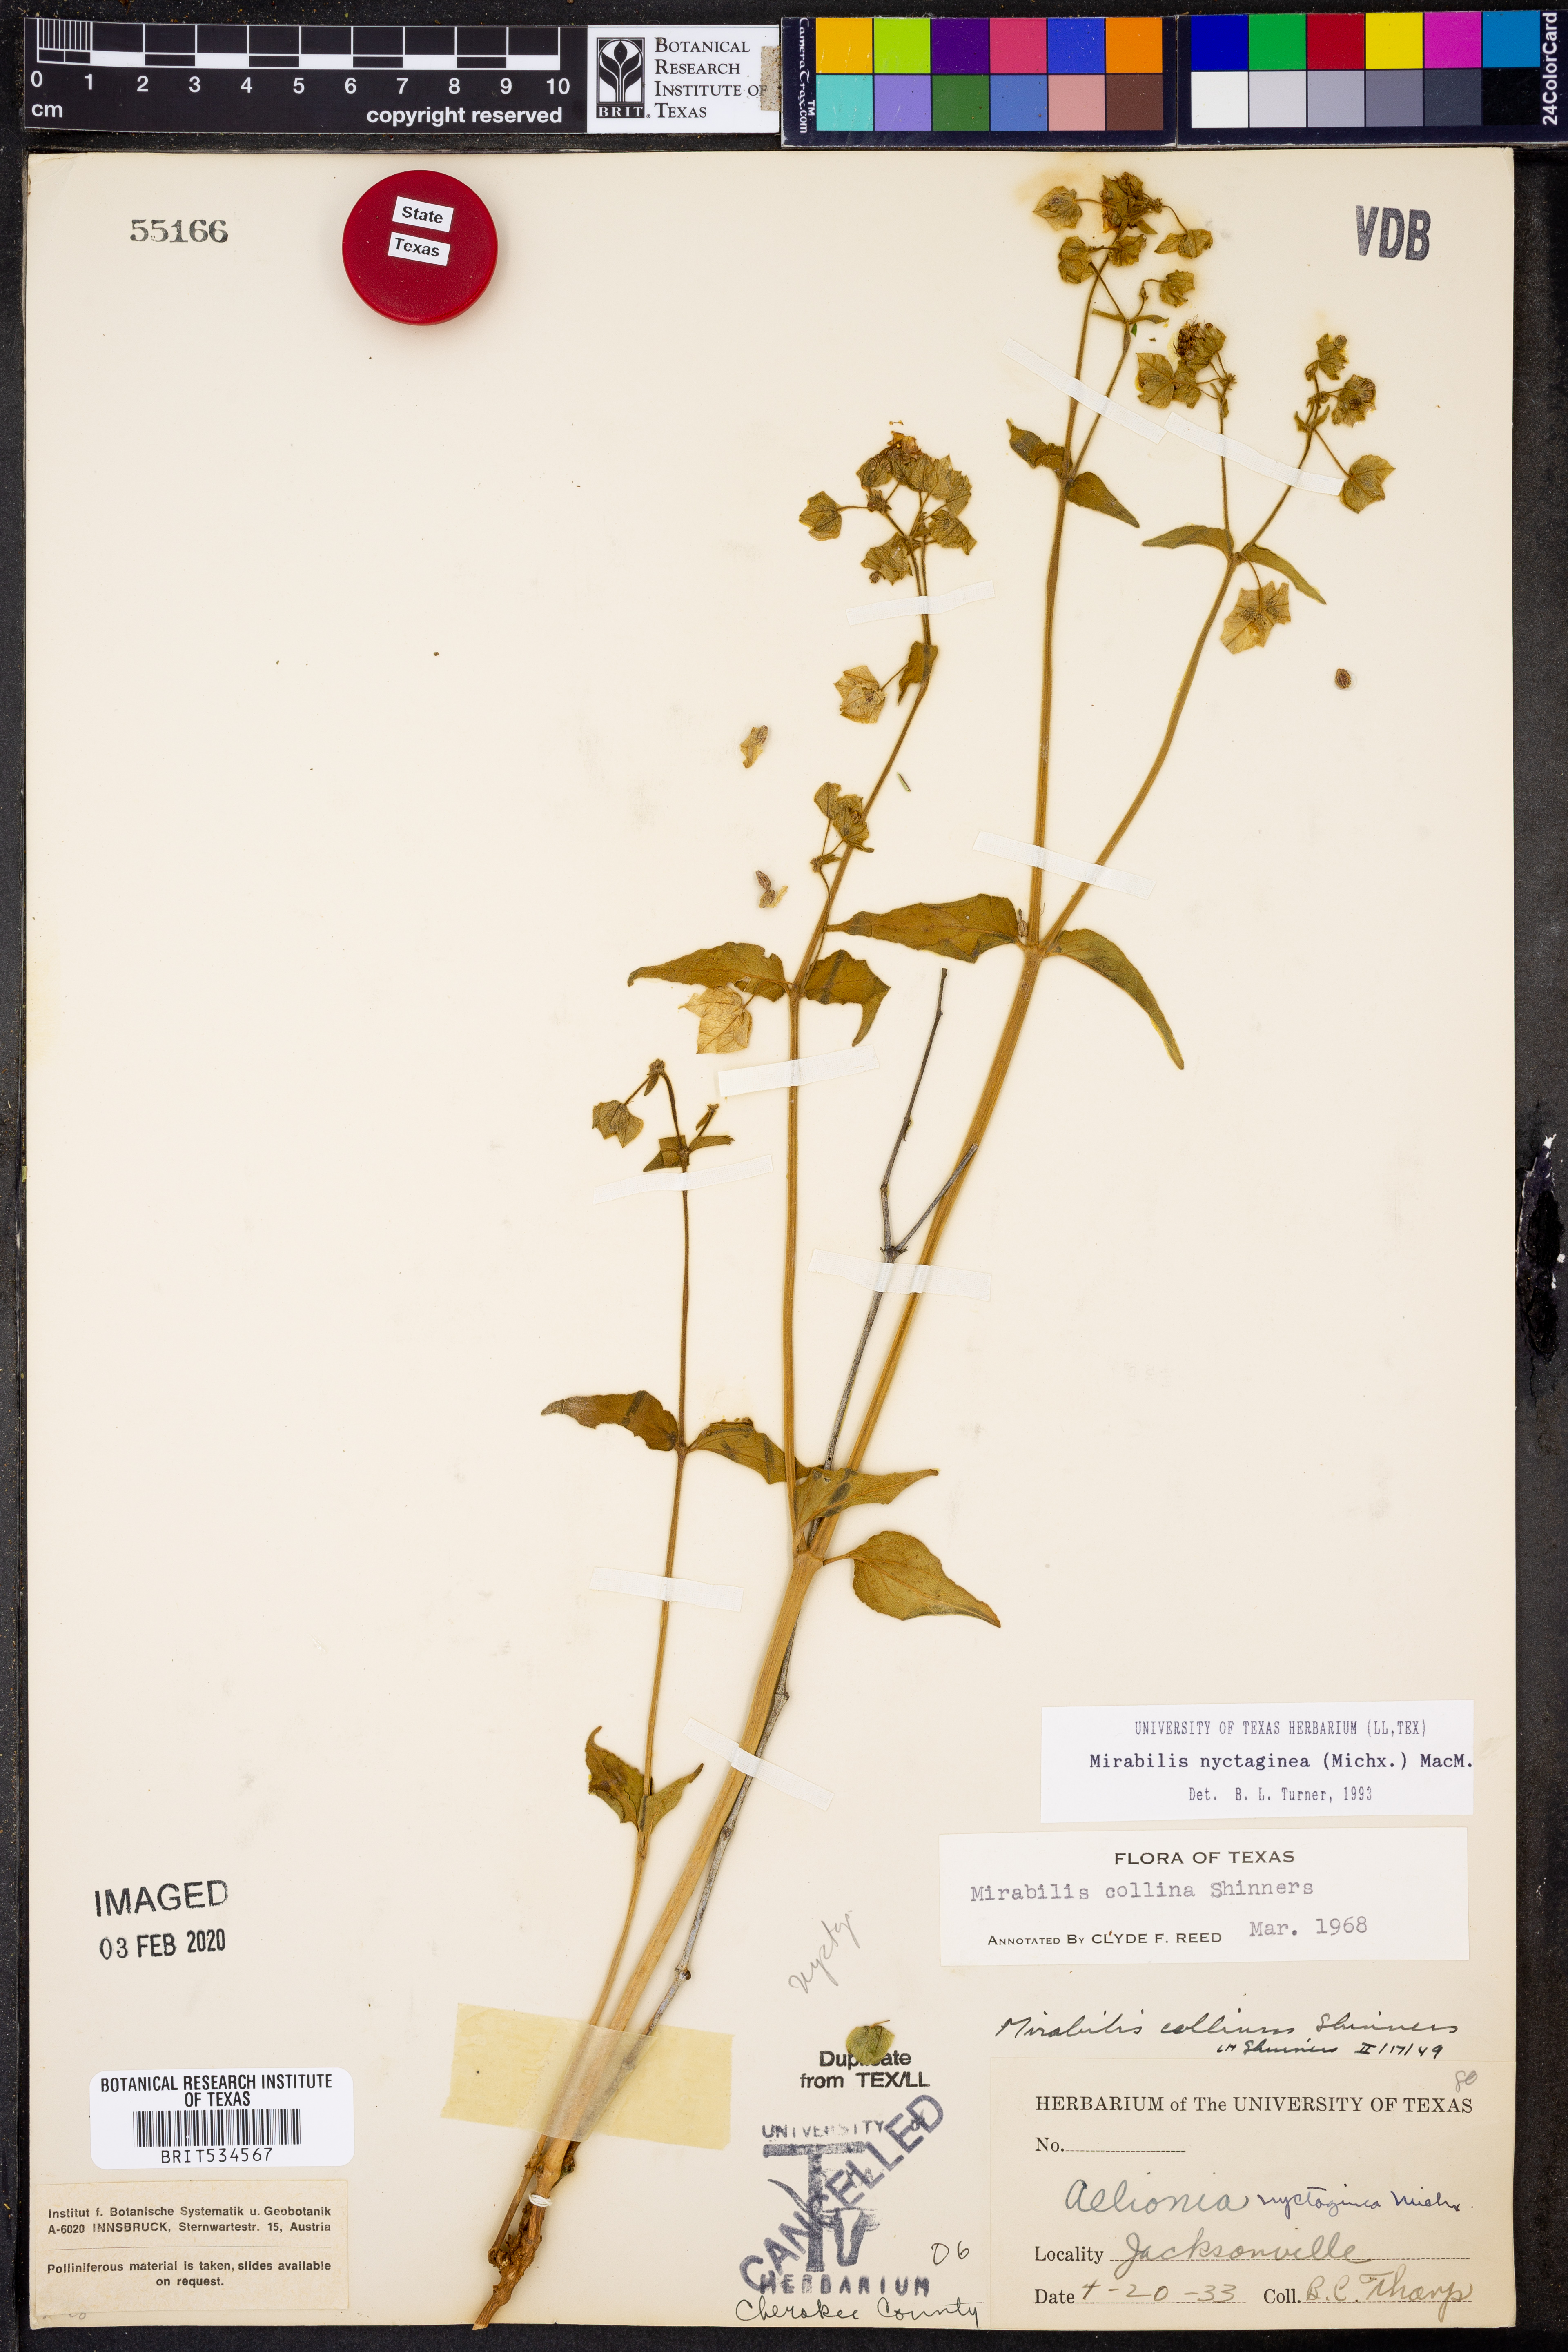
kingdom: Plantae
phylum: Tracheophyta
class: Magnoliopsida
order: Caryophyllales
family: Nyctaginaceae
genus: Mirabilis
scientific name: Mirabilis nyctaginea
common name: Umbrella wort
